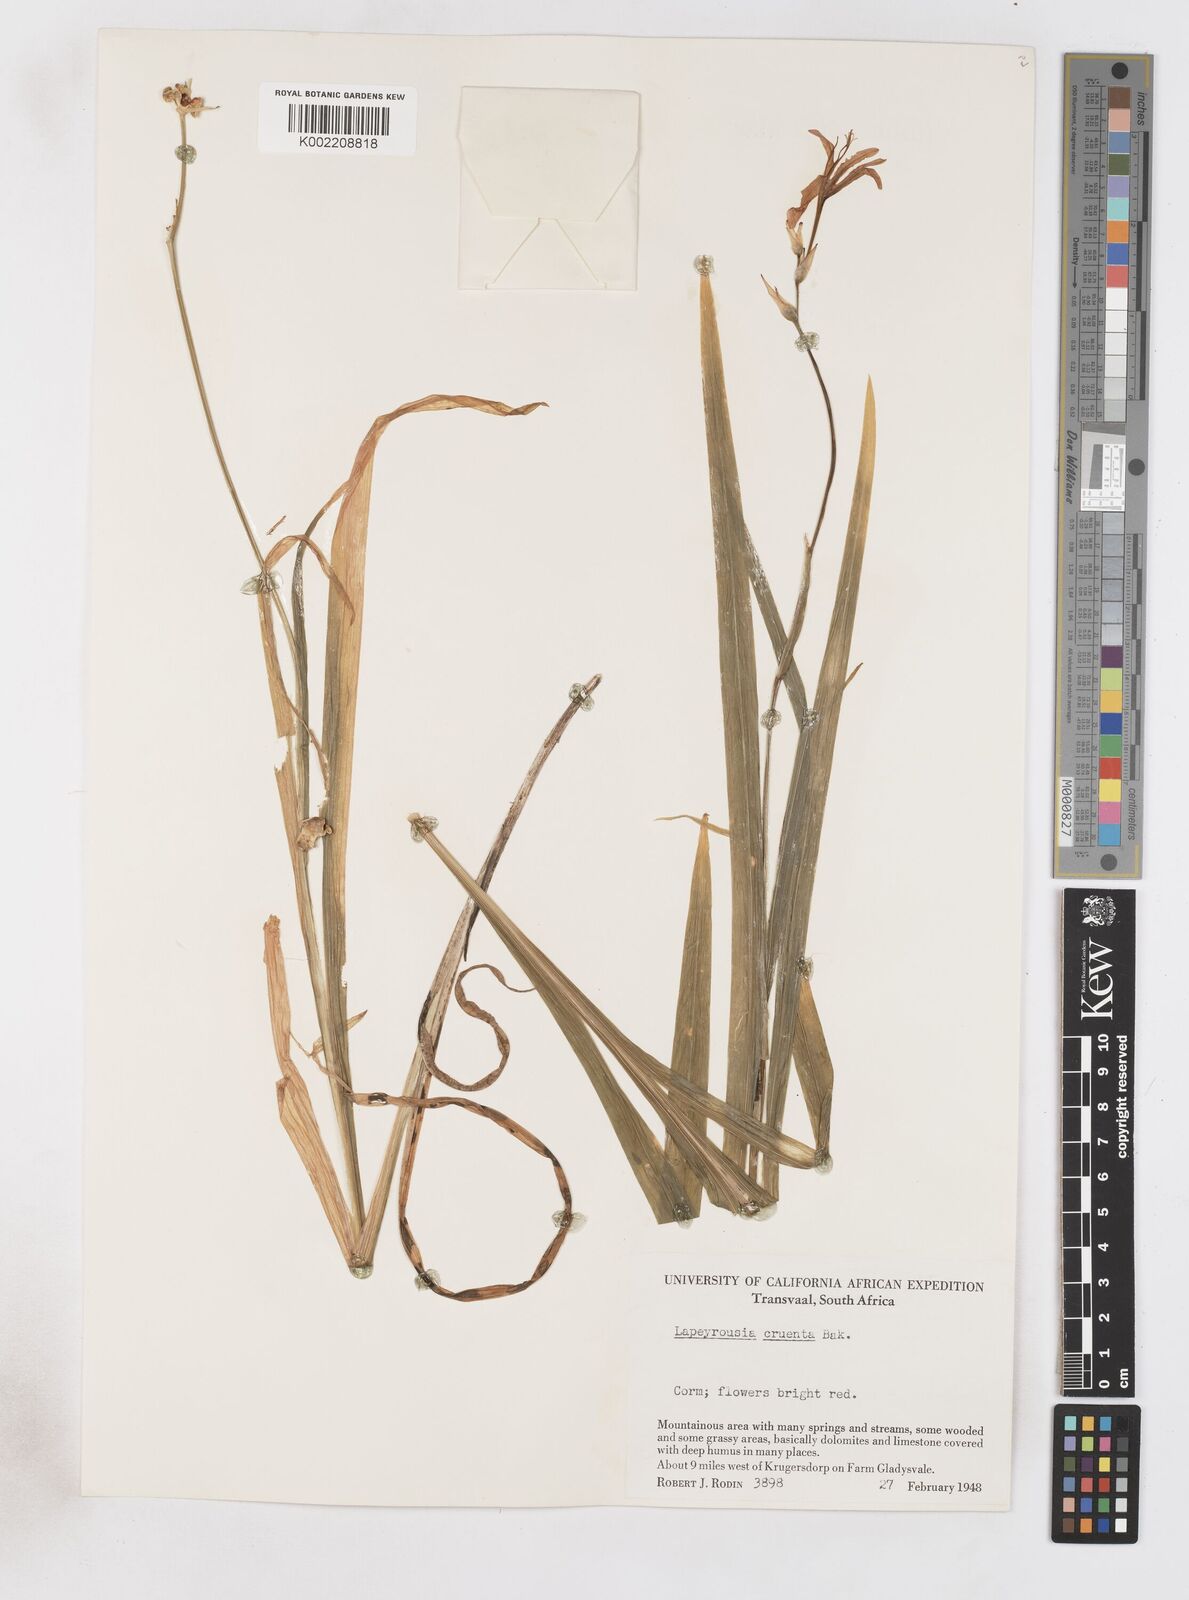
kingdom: Plantae
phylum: Tracheophyta
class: Liliopsida
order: Asparagales
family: Iridaceae
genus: Freesia
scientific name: Freesia grandiflora
